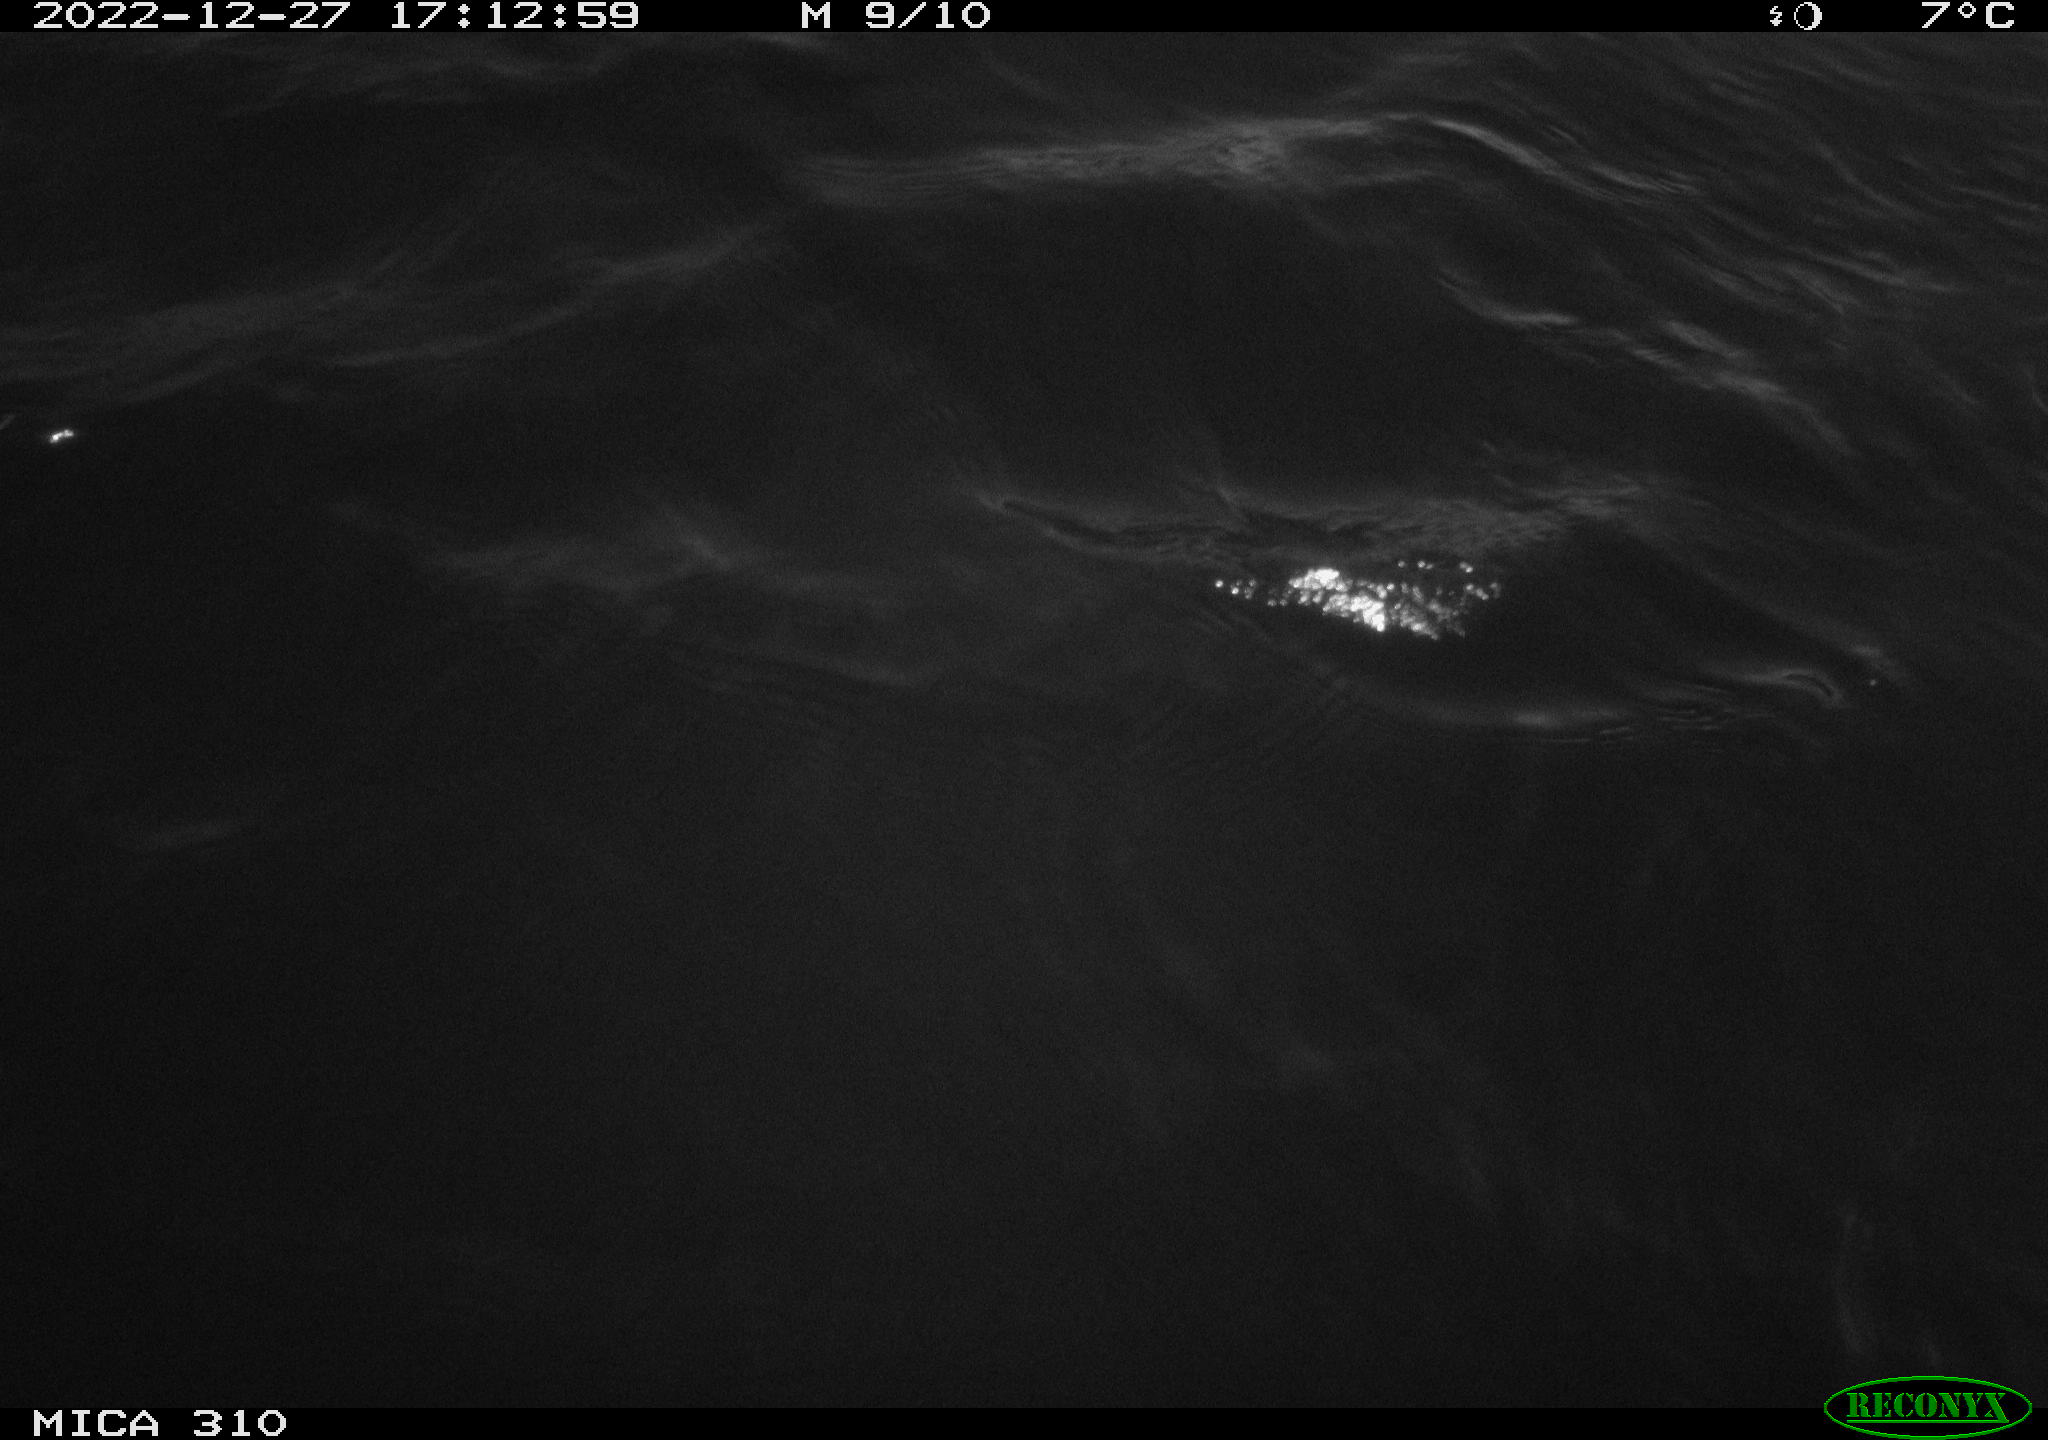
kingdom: Animalia
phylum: Chordata
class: Mammalia
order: Rodentia
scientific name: Rodentia
